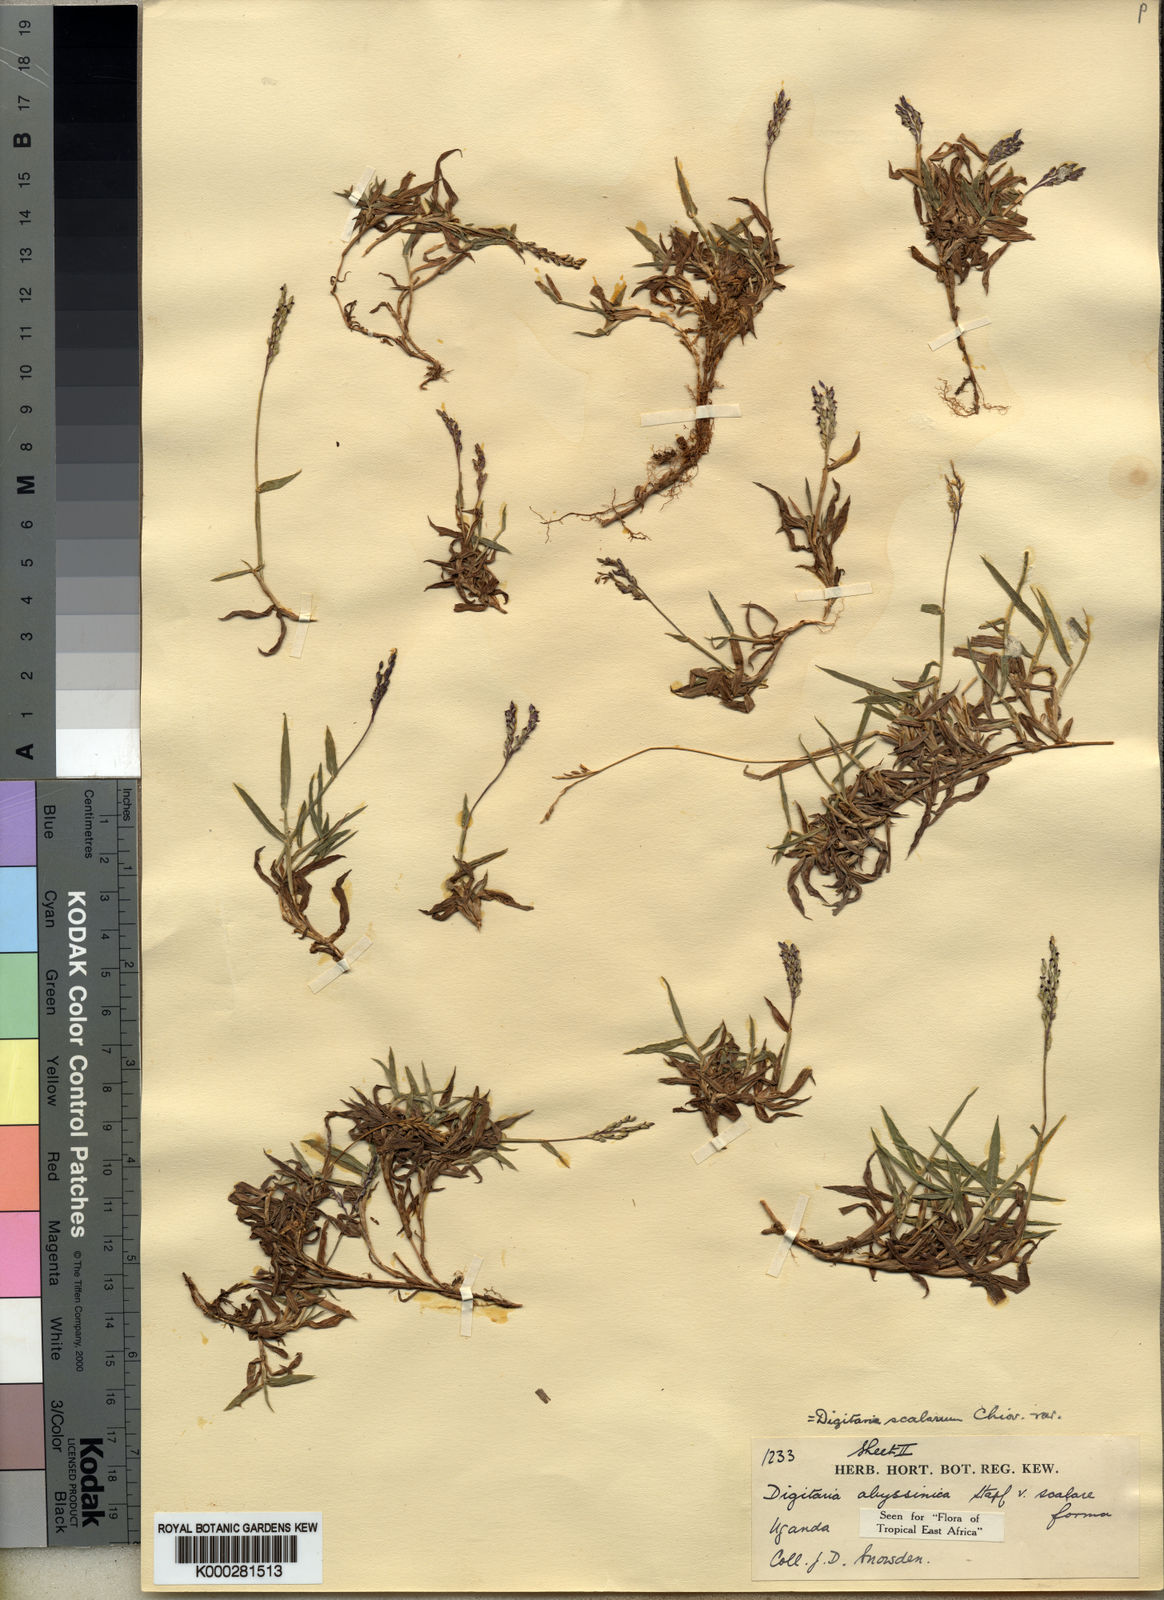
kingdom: Plantae
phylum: Tracheophyta
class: Liliopsida
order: Poales
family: Poaceae
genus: Digitaria
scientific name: Digitaria abyssinica
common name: African couchgrass
